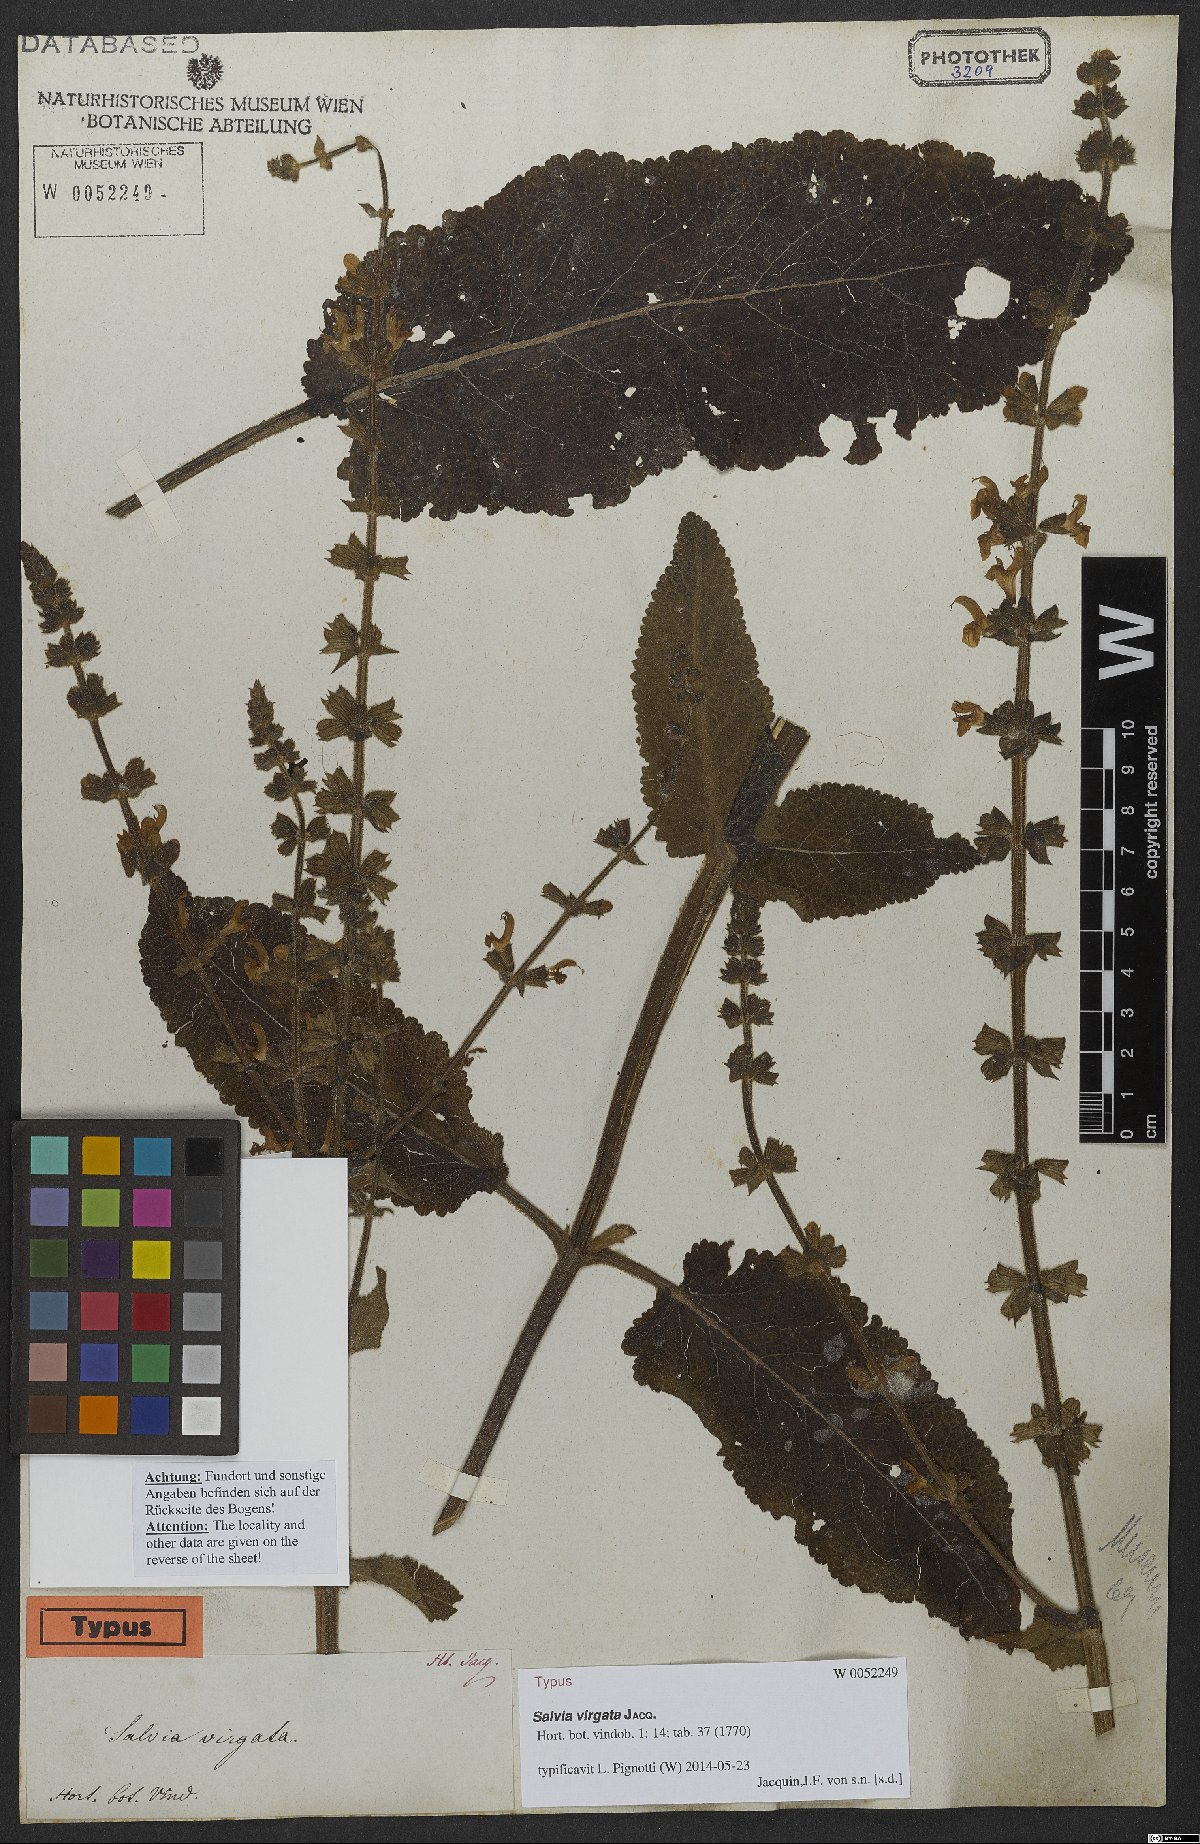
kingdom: Plantae
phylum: Tracheophyta
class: Magnoliopsida
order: Lamiales
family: Lamiaceae
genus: Salvia
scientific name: Salvia virgata
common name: Wand sage
